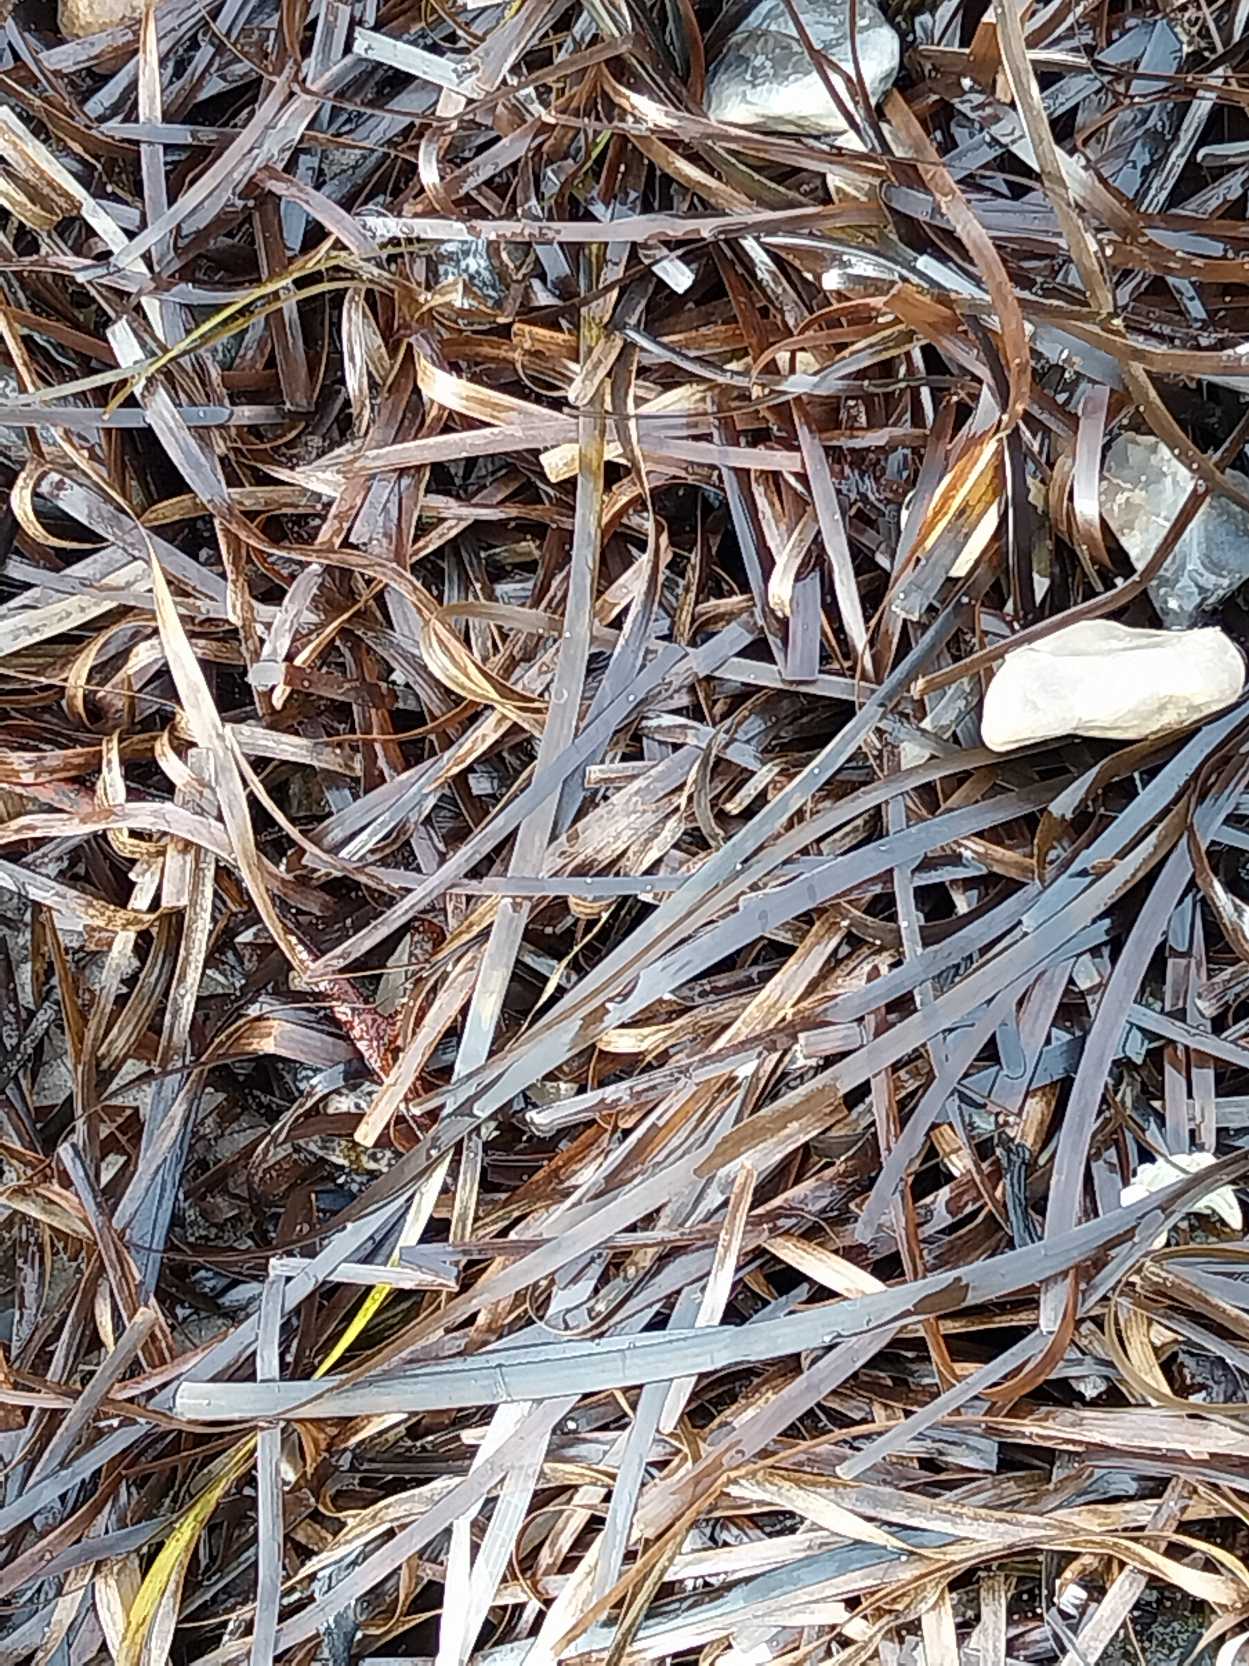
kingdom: Plantae
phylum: Tracheophyta
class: Liliopsida
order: Alismatales
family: Zosteraceae
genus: Zostera
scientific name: Zostera marina
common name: Almindelig bændeltang
